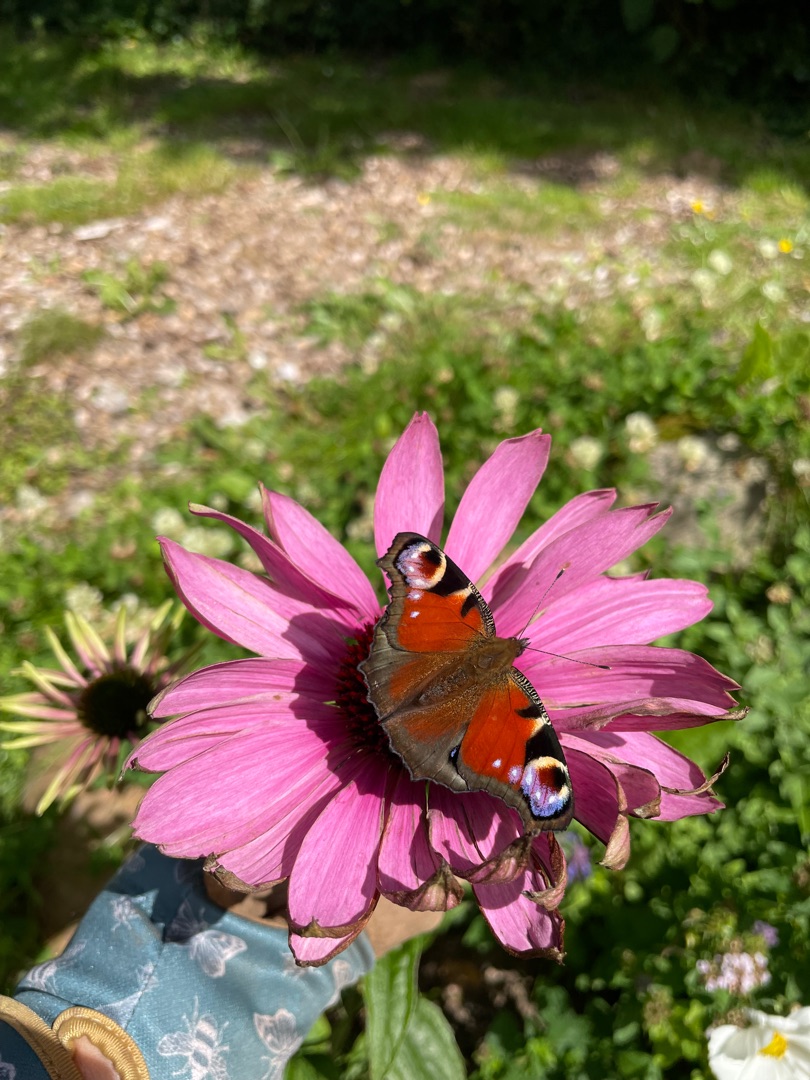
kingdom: Animalia
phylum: Arthropoda
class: Insecta
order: Lepidoptera
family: Nymphalidae
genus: Aglais
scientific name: Aglais io
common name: Dagpåfugleøje
